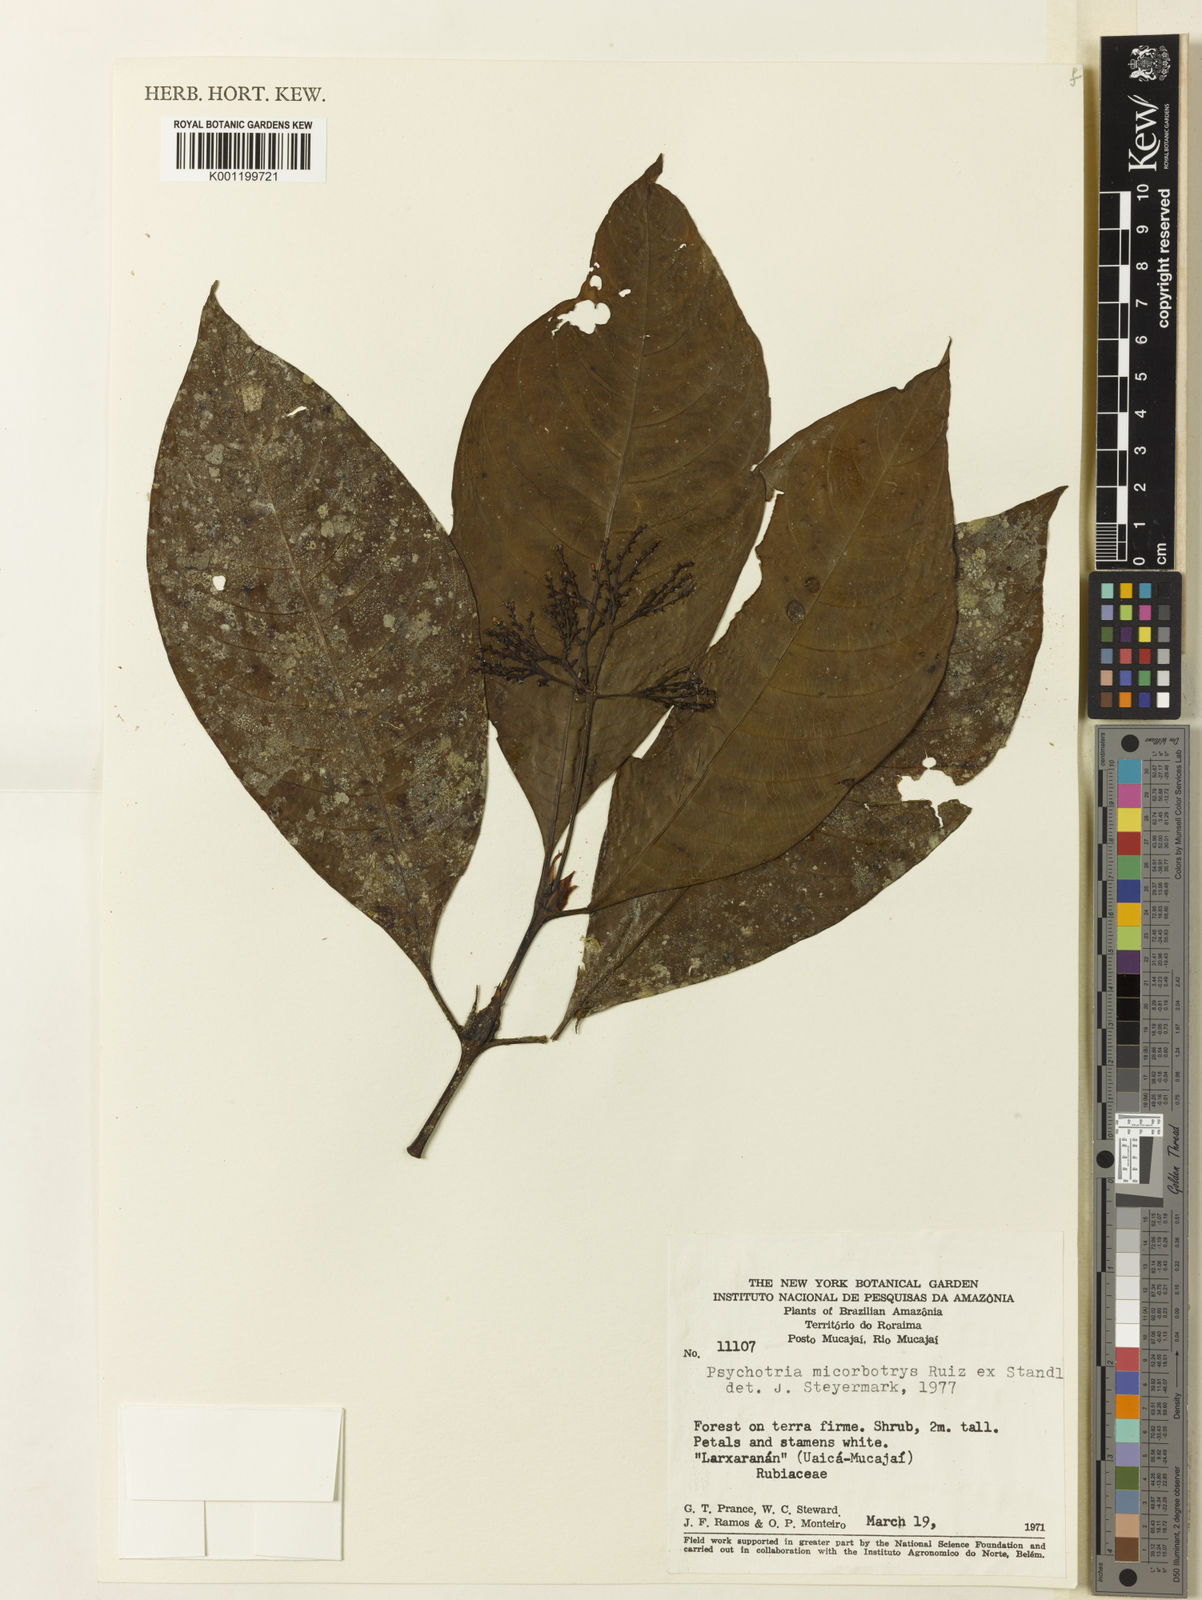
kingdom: Plantae
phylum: Tracheophyta
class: Magnoliopsida
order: Gentianales
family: Rubiaceae
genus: Palicourea
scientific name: Palicourea microbotrys
